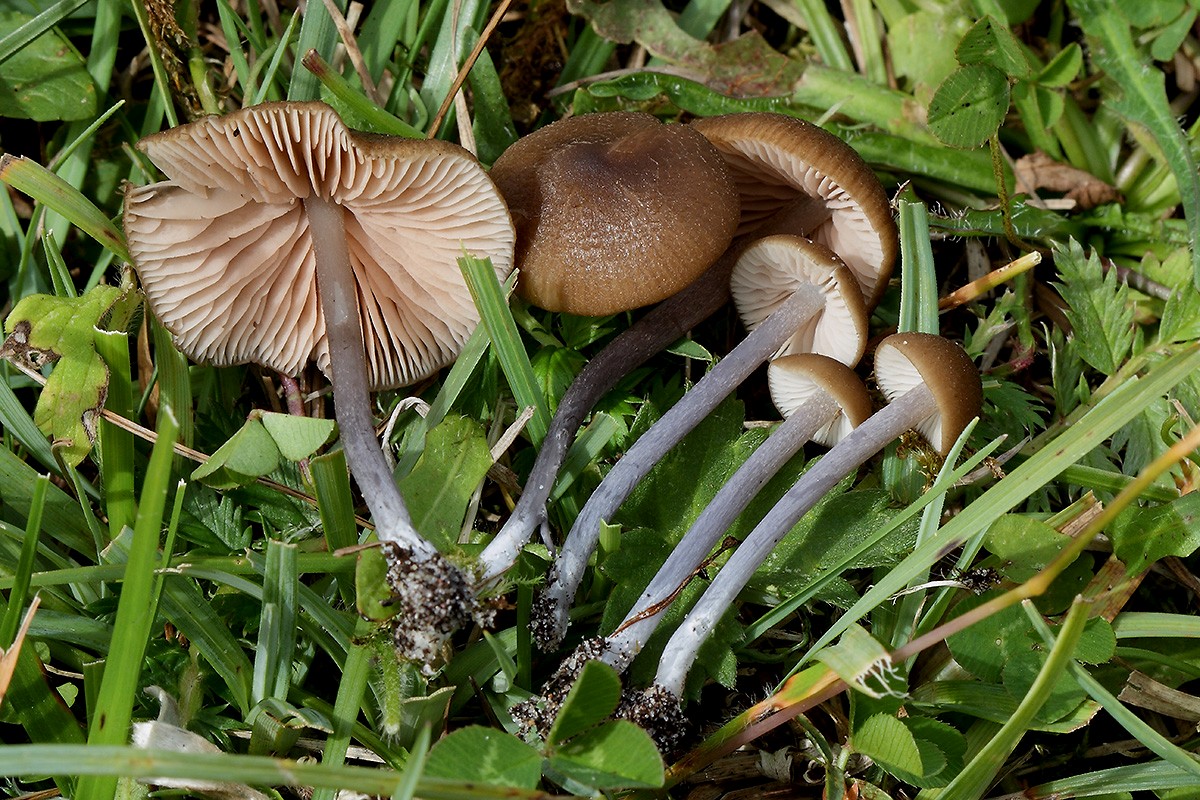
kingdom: Fungi
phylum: Basidiomycota
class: Agaricomycetes
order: Agaricales
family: Entolomataceae
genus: Entoloma
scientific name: Entoloma glaucobasis
